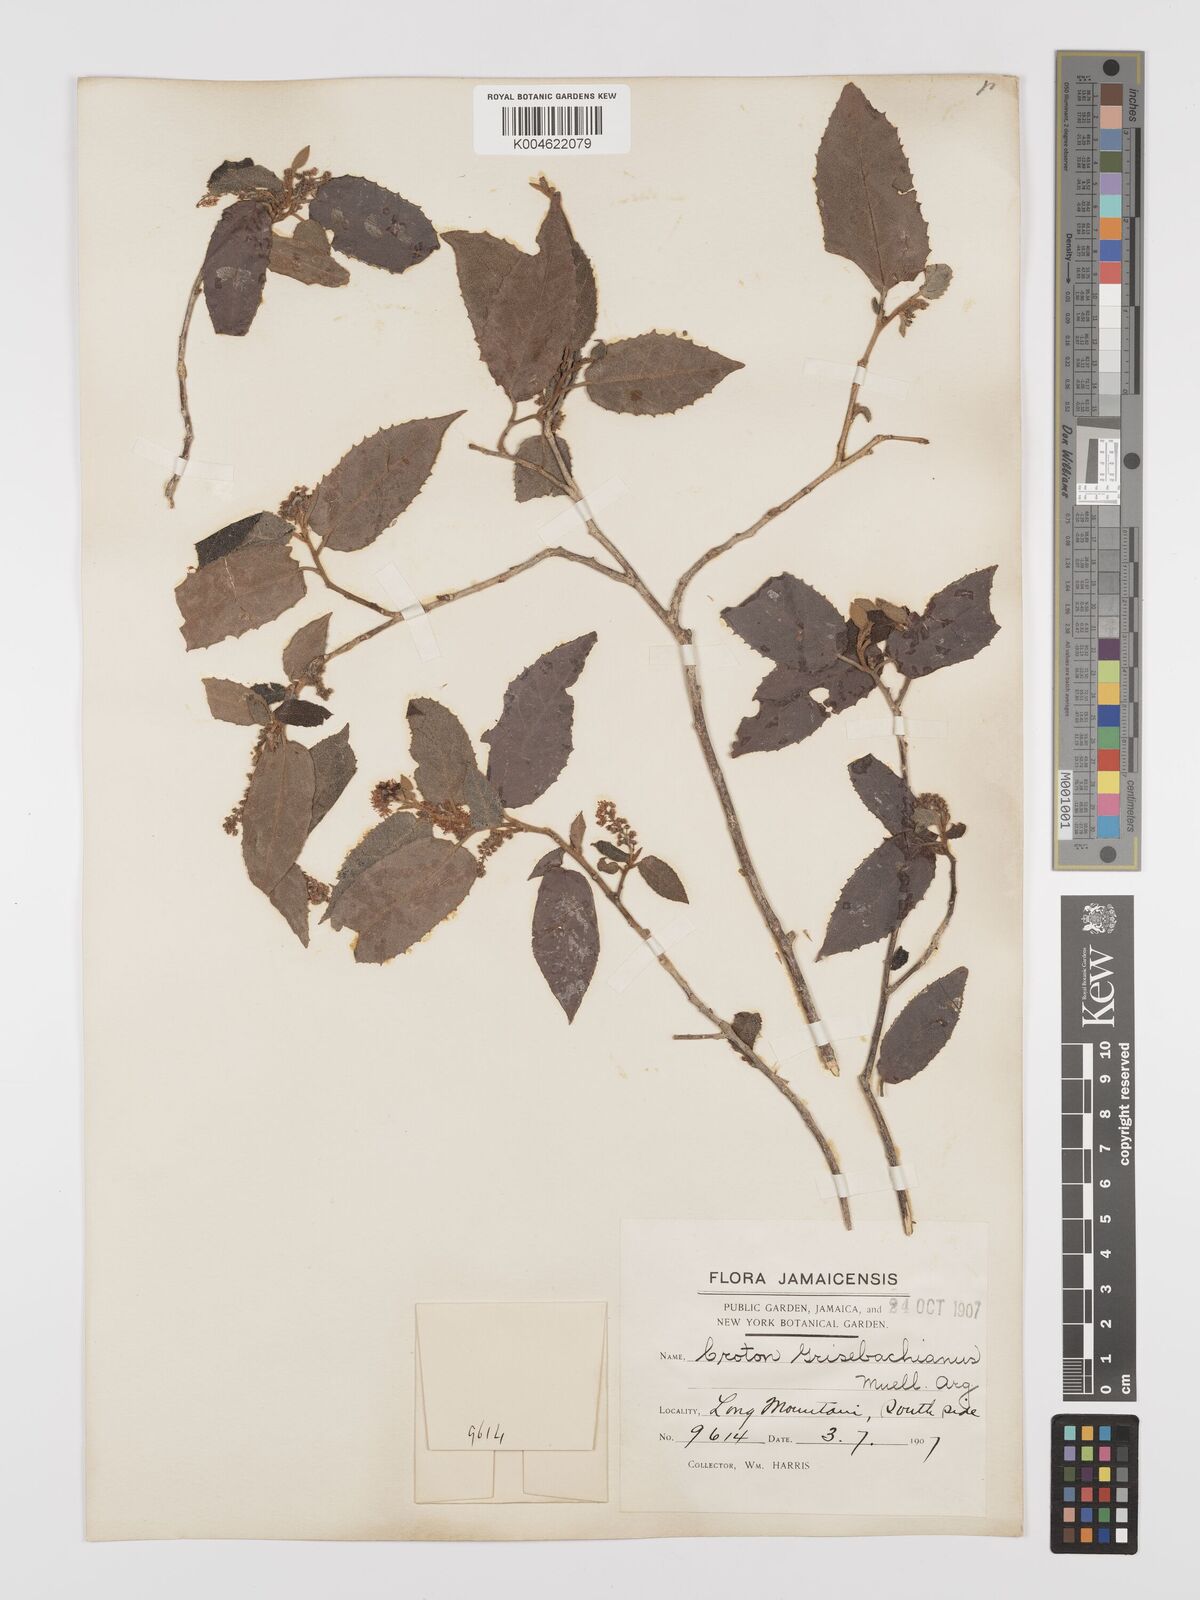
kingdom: Plantae
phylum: Tracheophyta
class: Magnoliopsida
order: Malpighiales
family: Euphorbiaceae
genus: Croton
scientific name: Croton grisebachianus
